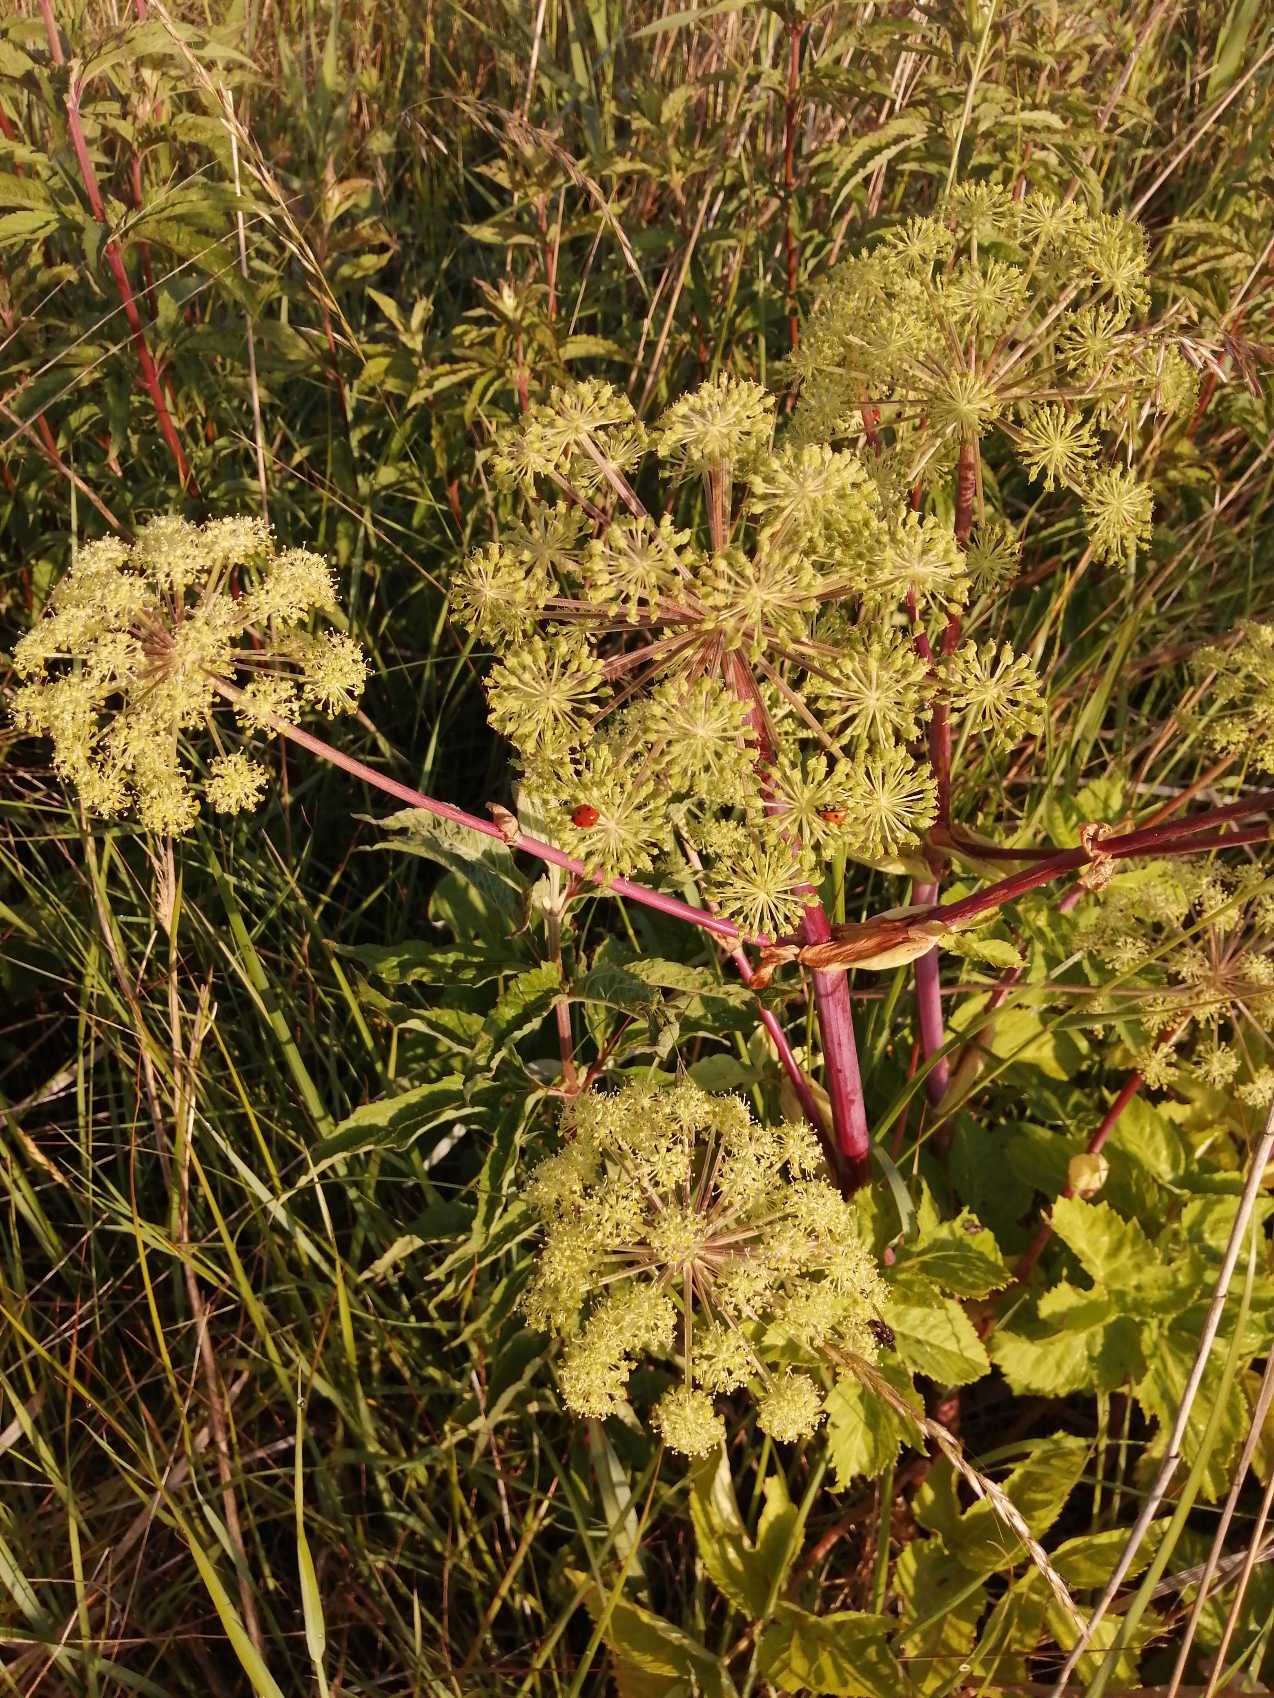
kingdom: Plantae
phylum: Tracheophyta
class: Magnoliopsida
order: Apiales
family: Apiaceae
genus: Angelica
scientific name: Angelica archangelica
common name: Strand-kvan
